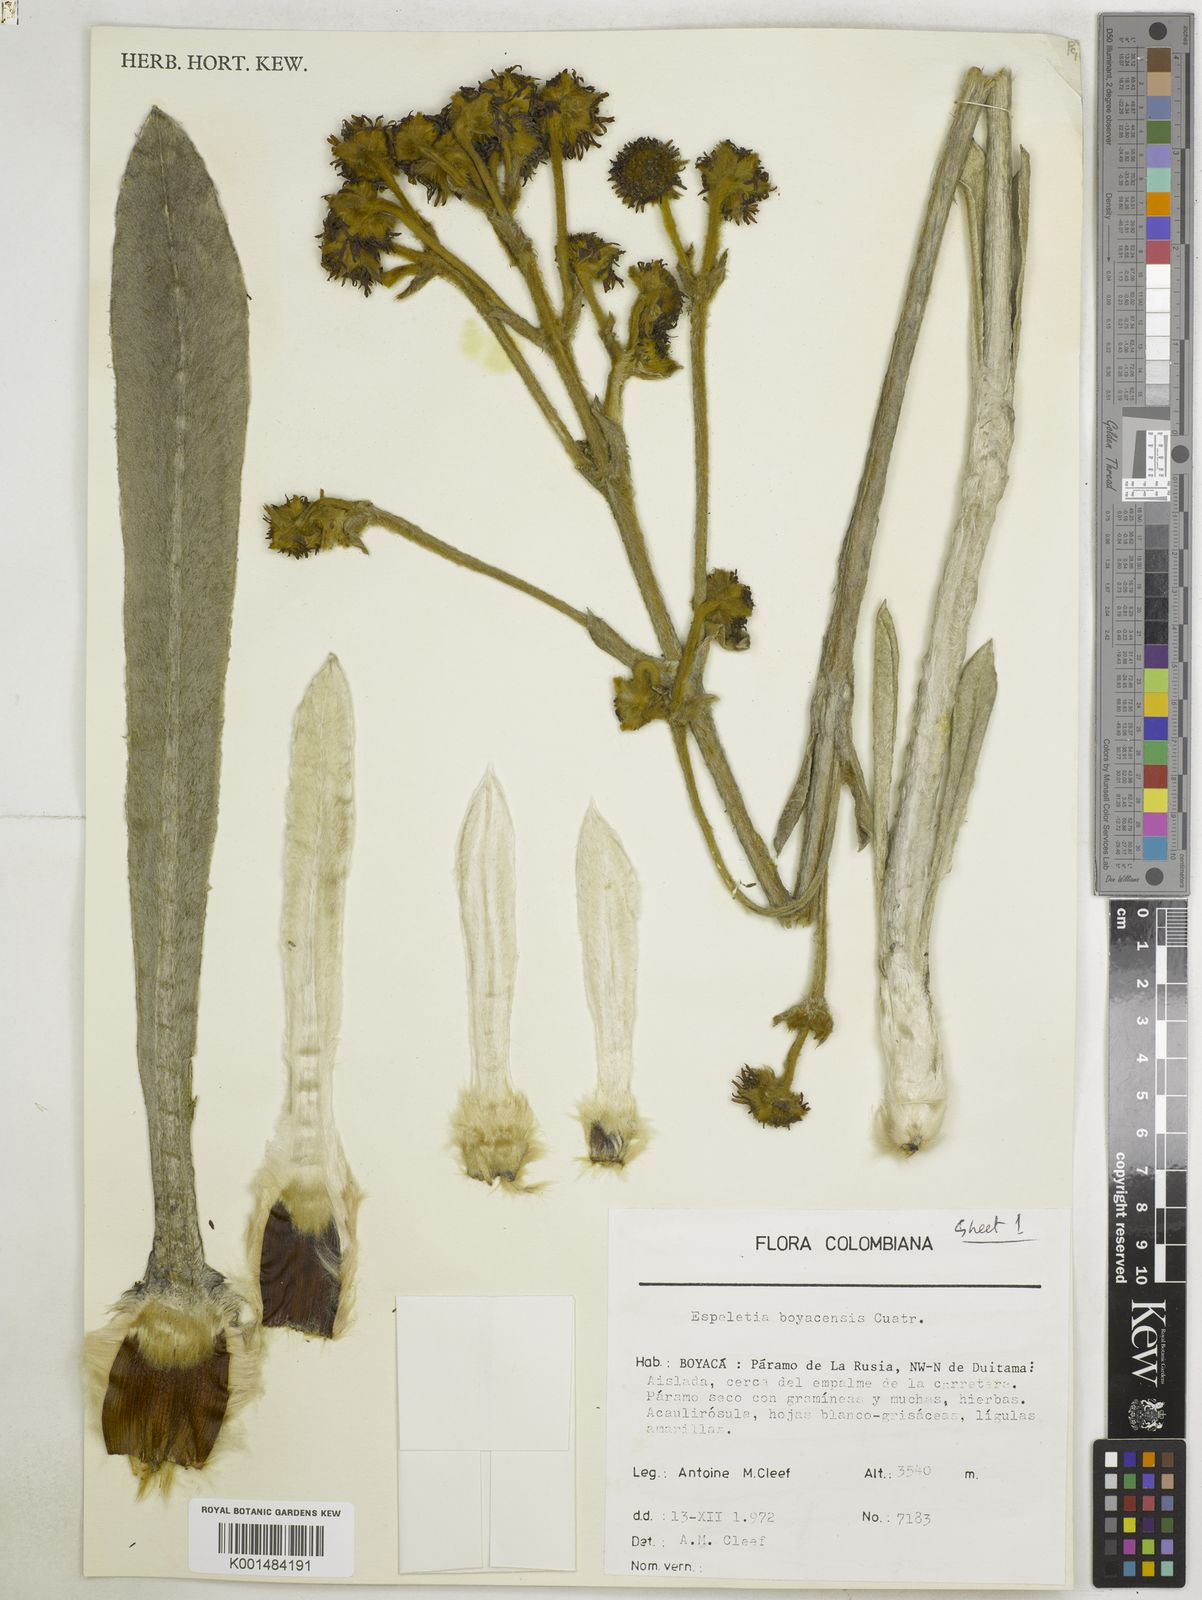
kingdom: Plantae
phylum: Tracheophyta
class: Magnoliopsida
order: Asterales
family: Asteraceae
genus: Espeletia
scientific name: Espeletia boyacensis
